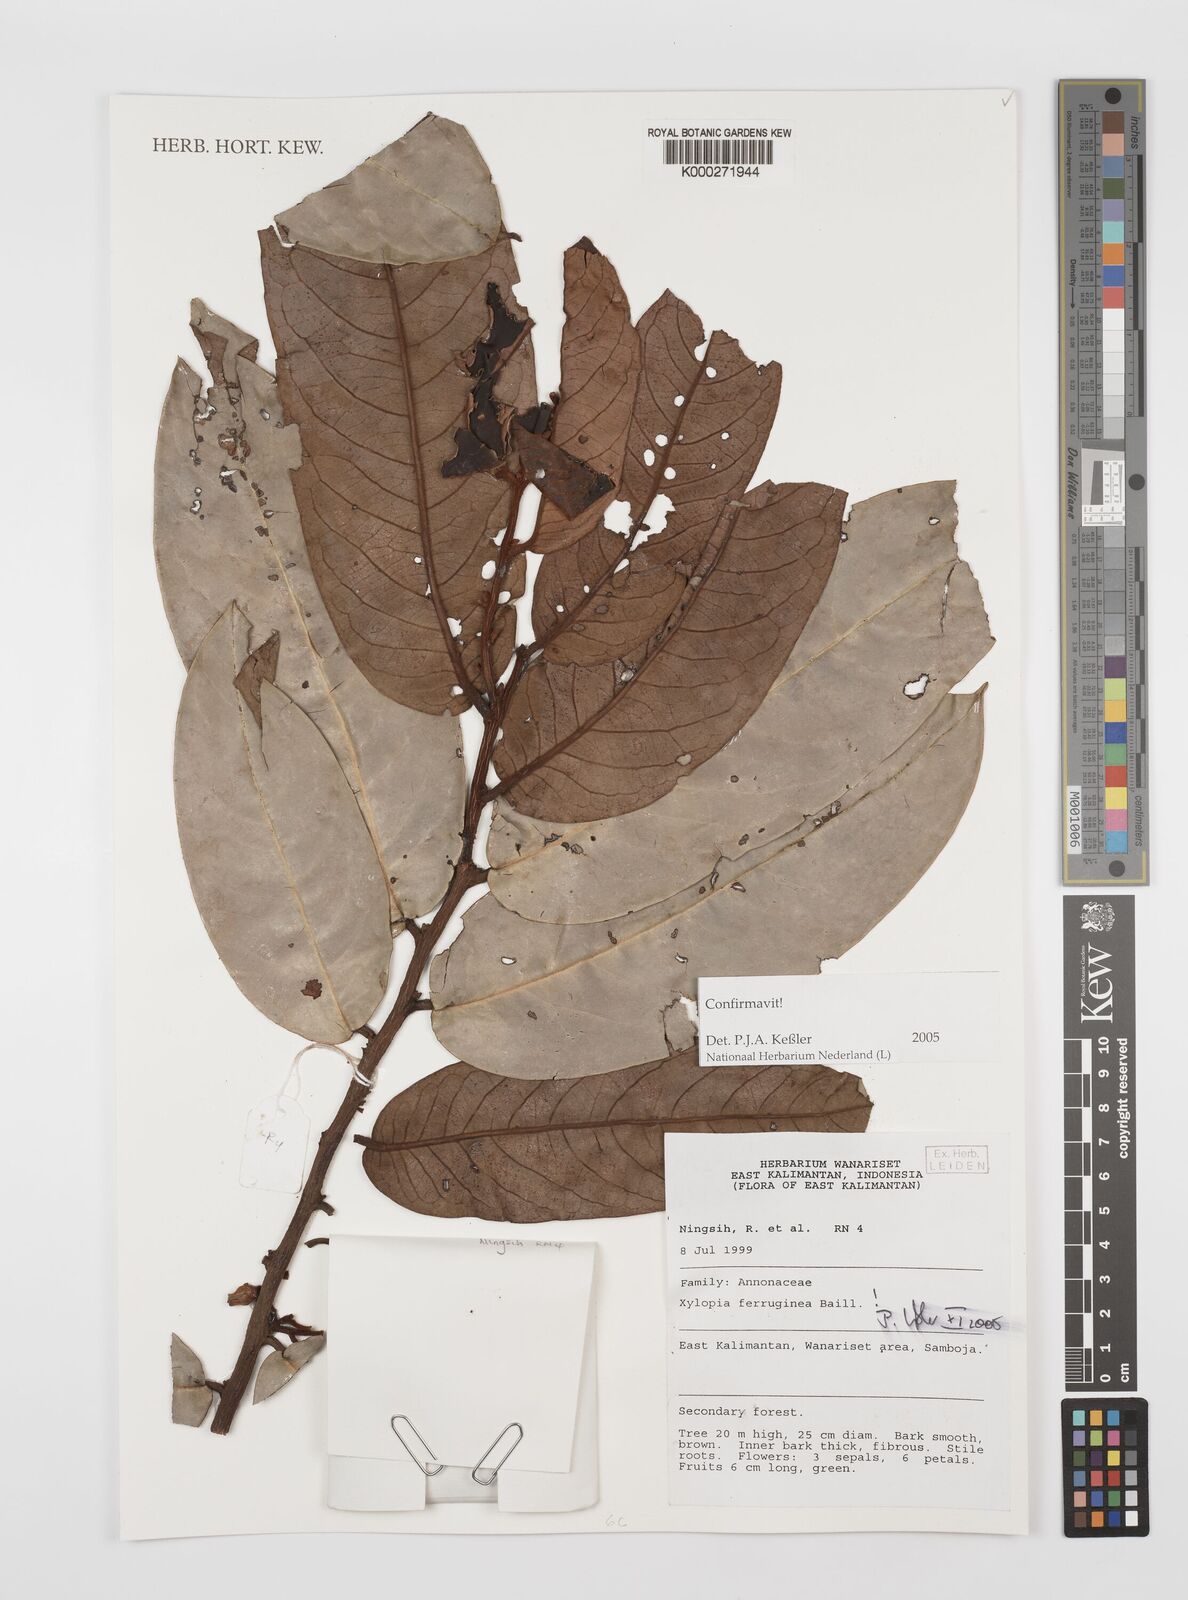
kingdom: Plantae
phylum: Tracheophyta
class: Magnoliopsida
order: Magnoliales
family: Annonaceae
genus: Xylopia
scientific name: Xylopia ferruginea
